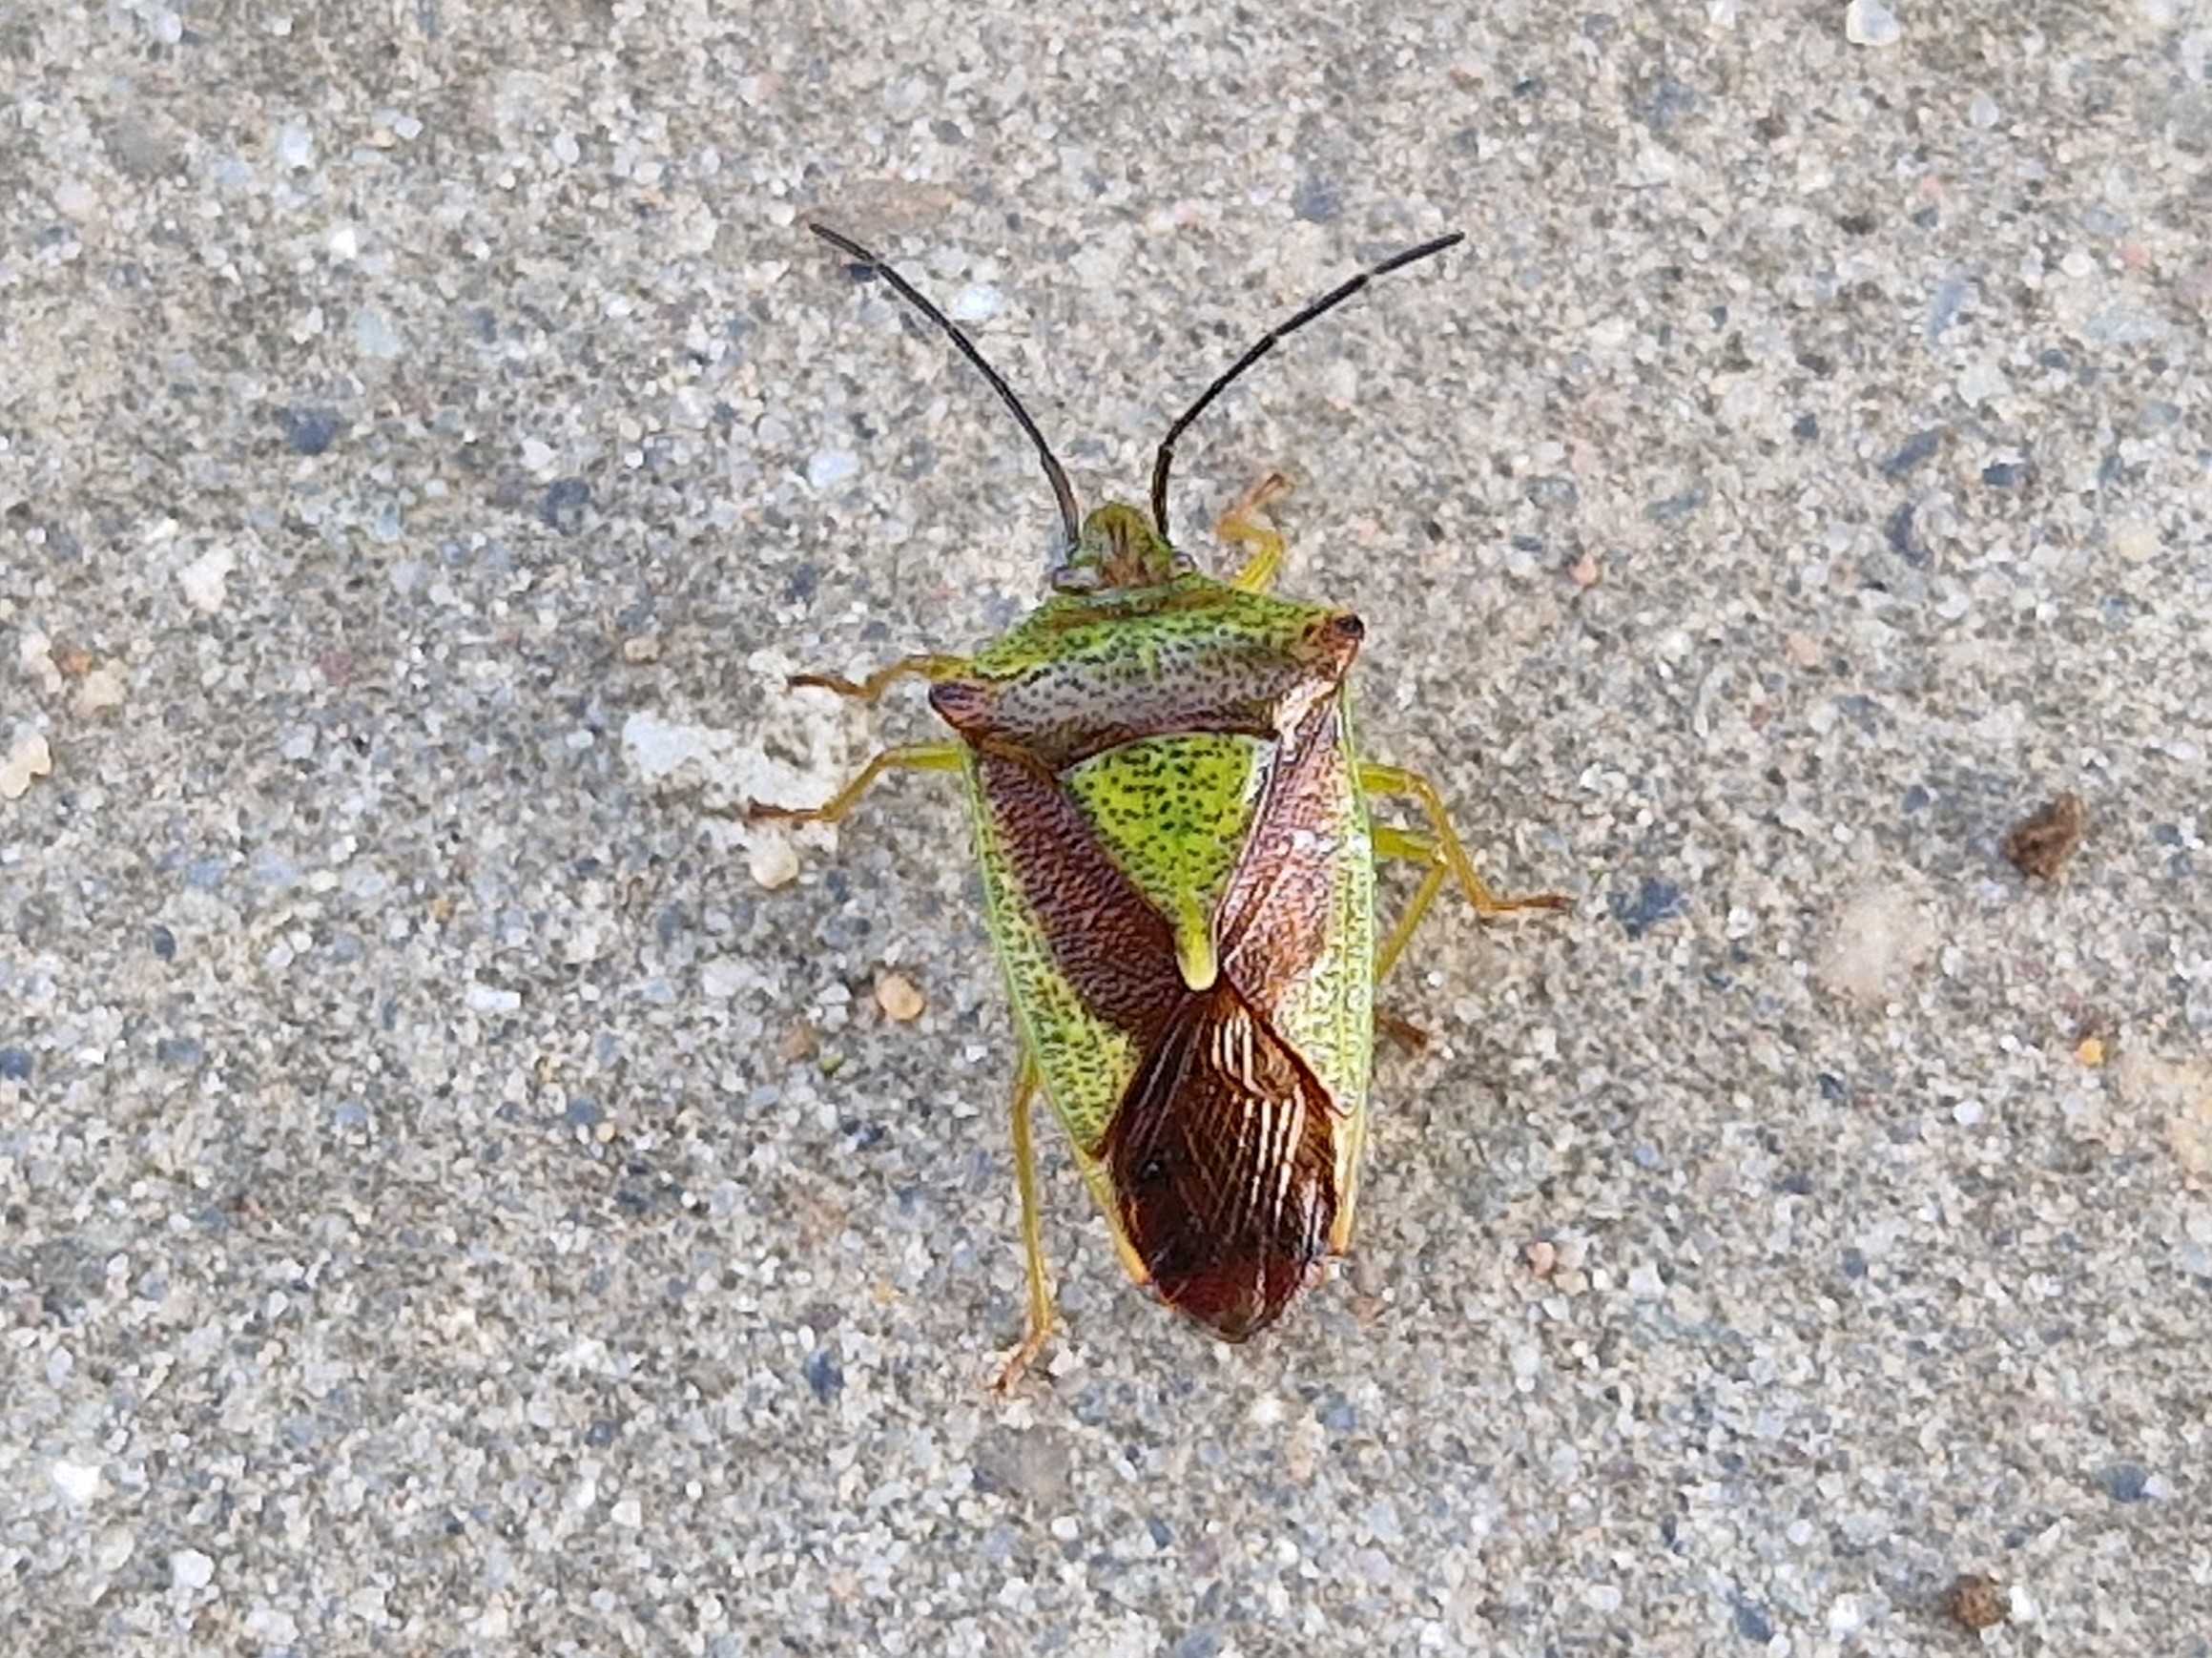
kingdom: Animalia
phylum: Arthropoda
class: Insecta
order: Hemiptera
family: Acanthosomatidae
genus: Acanthosoma
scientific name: Acanthosoma haemorrhoidale
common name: Stor løvtæge
